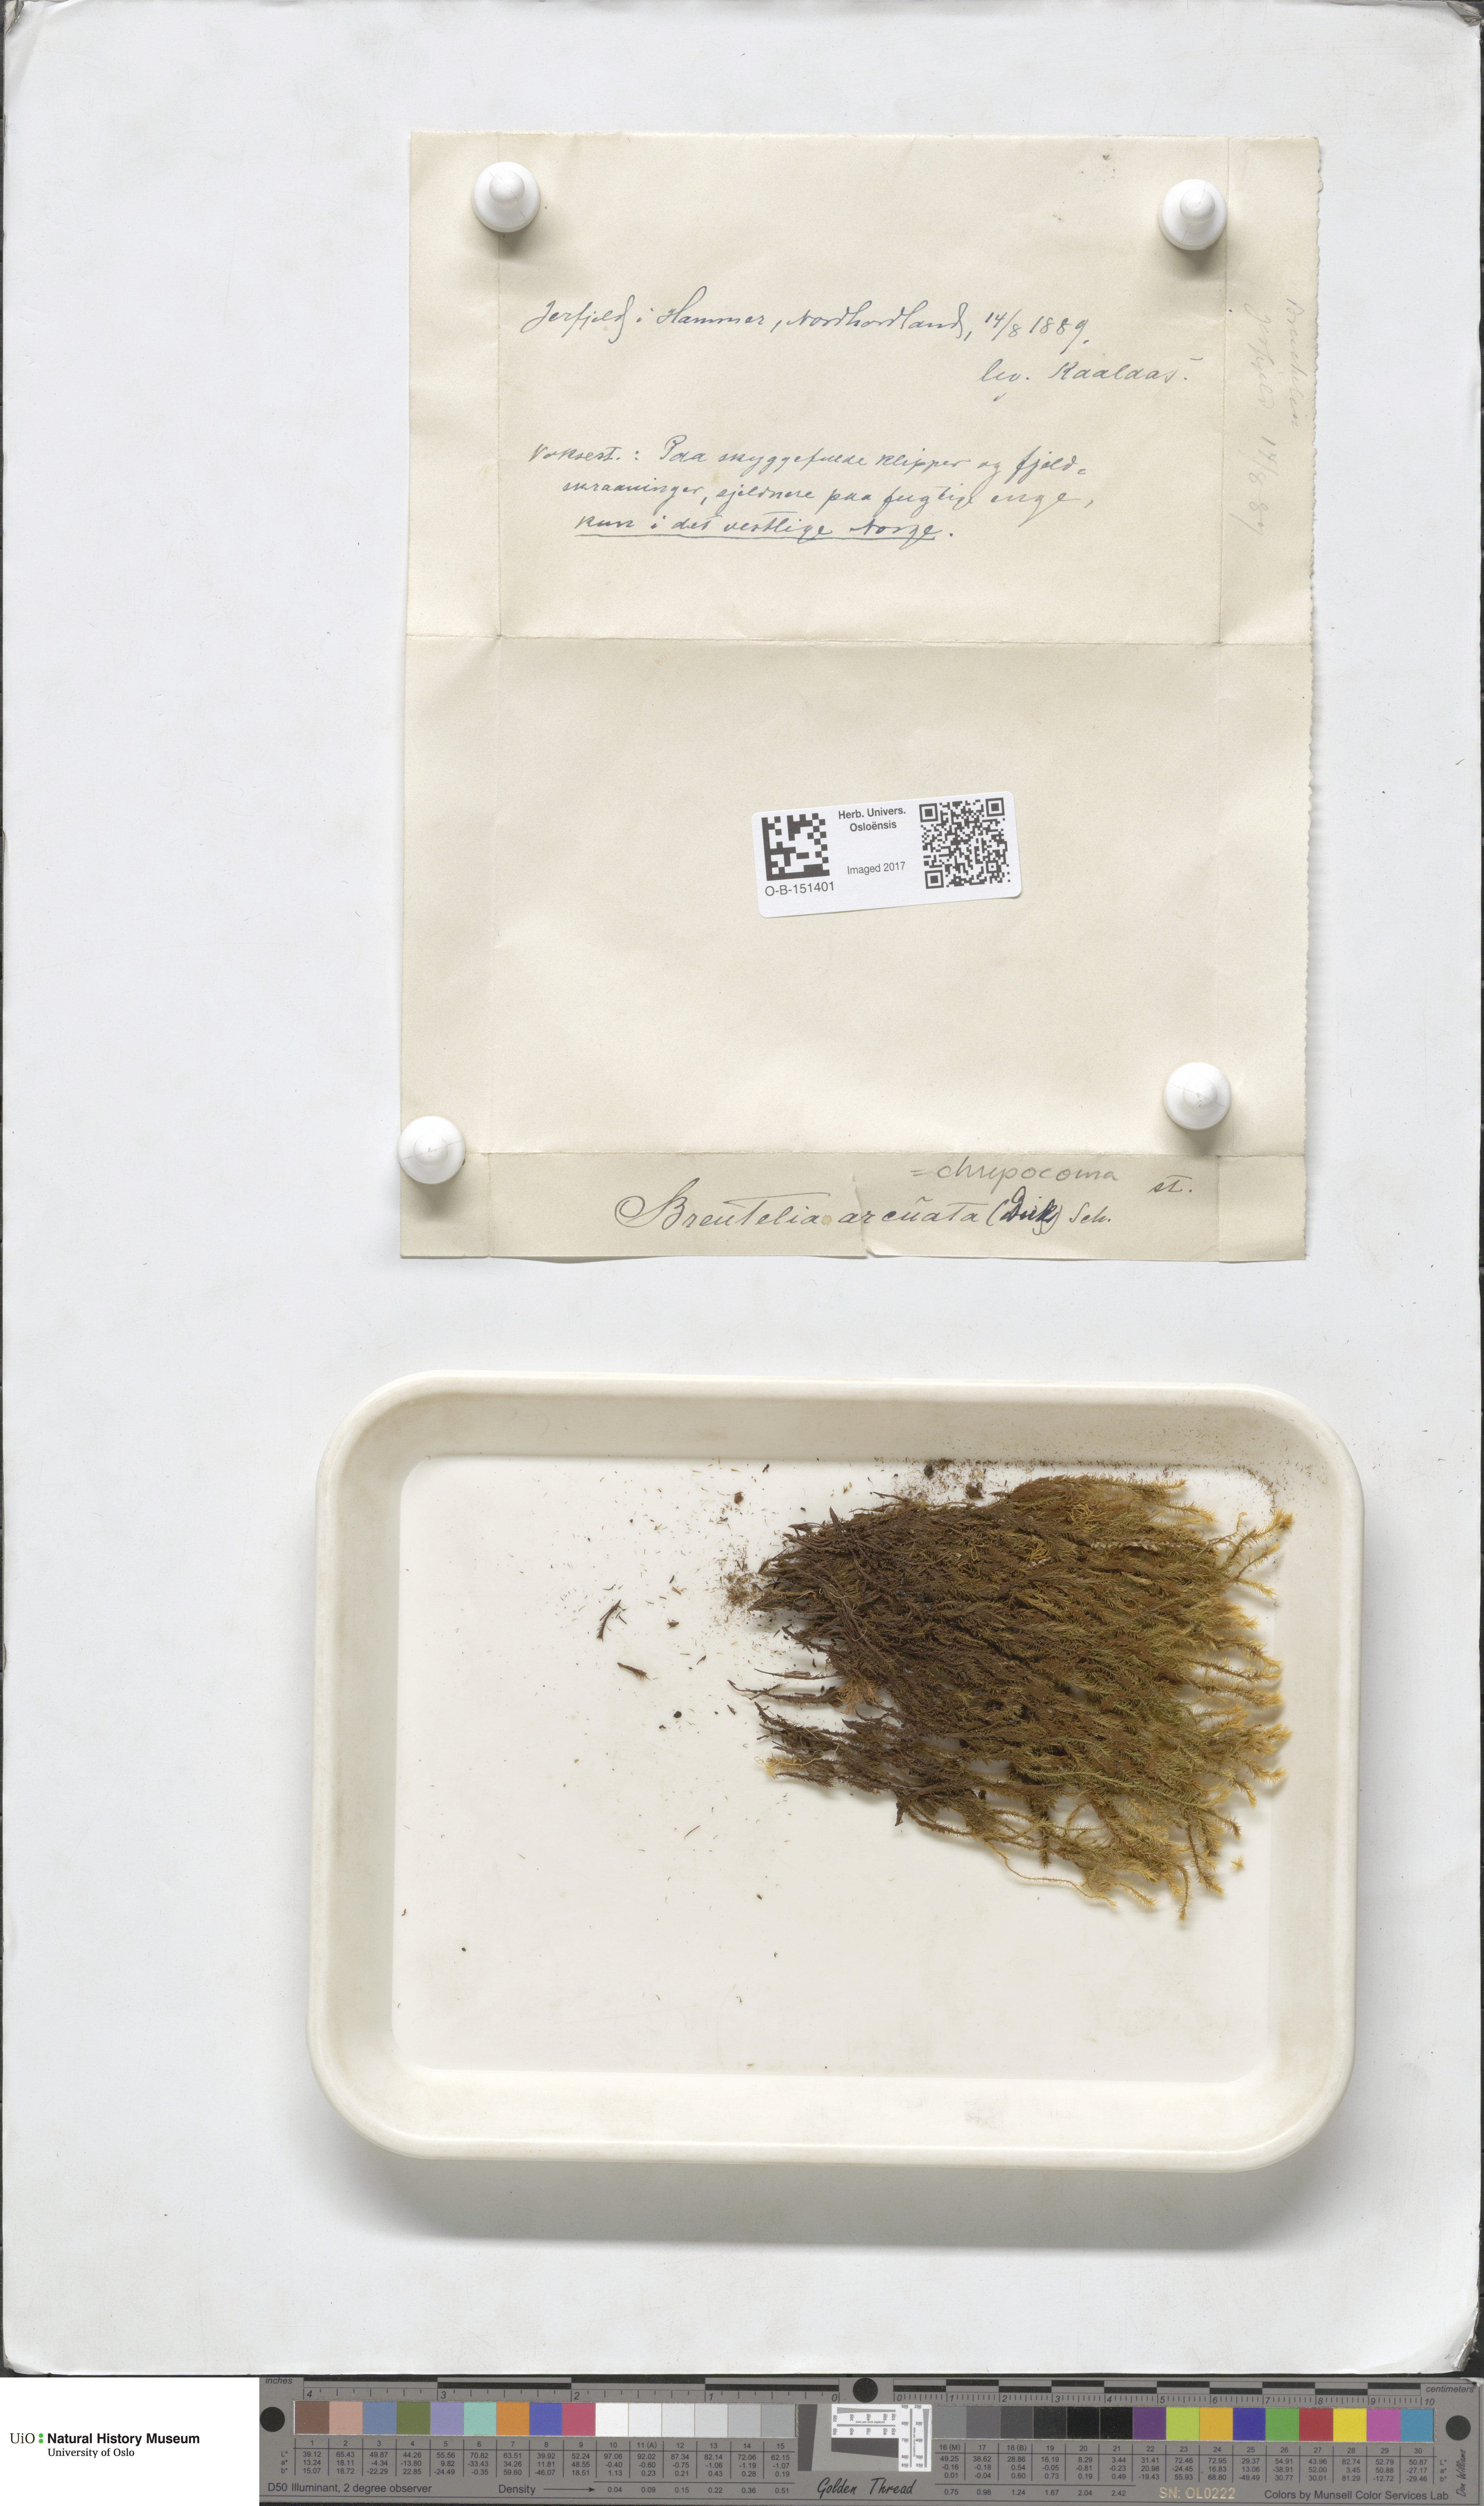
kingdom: Plantae
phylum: Bryophyta
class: Bryopsida
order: Bartramiales
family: Bartramiaceae
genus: Breutelia
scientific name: Breutelia chrysocoma
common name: Bottle-brush moss
